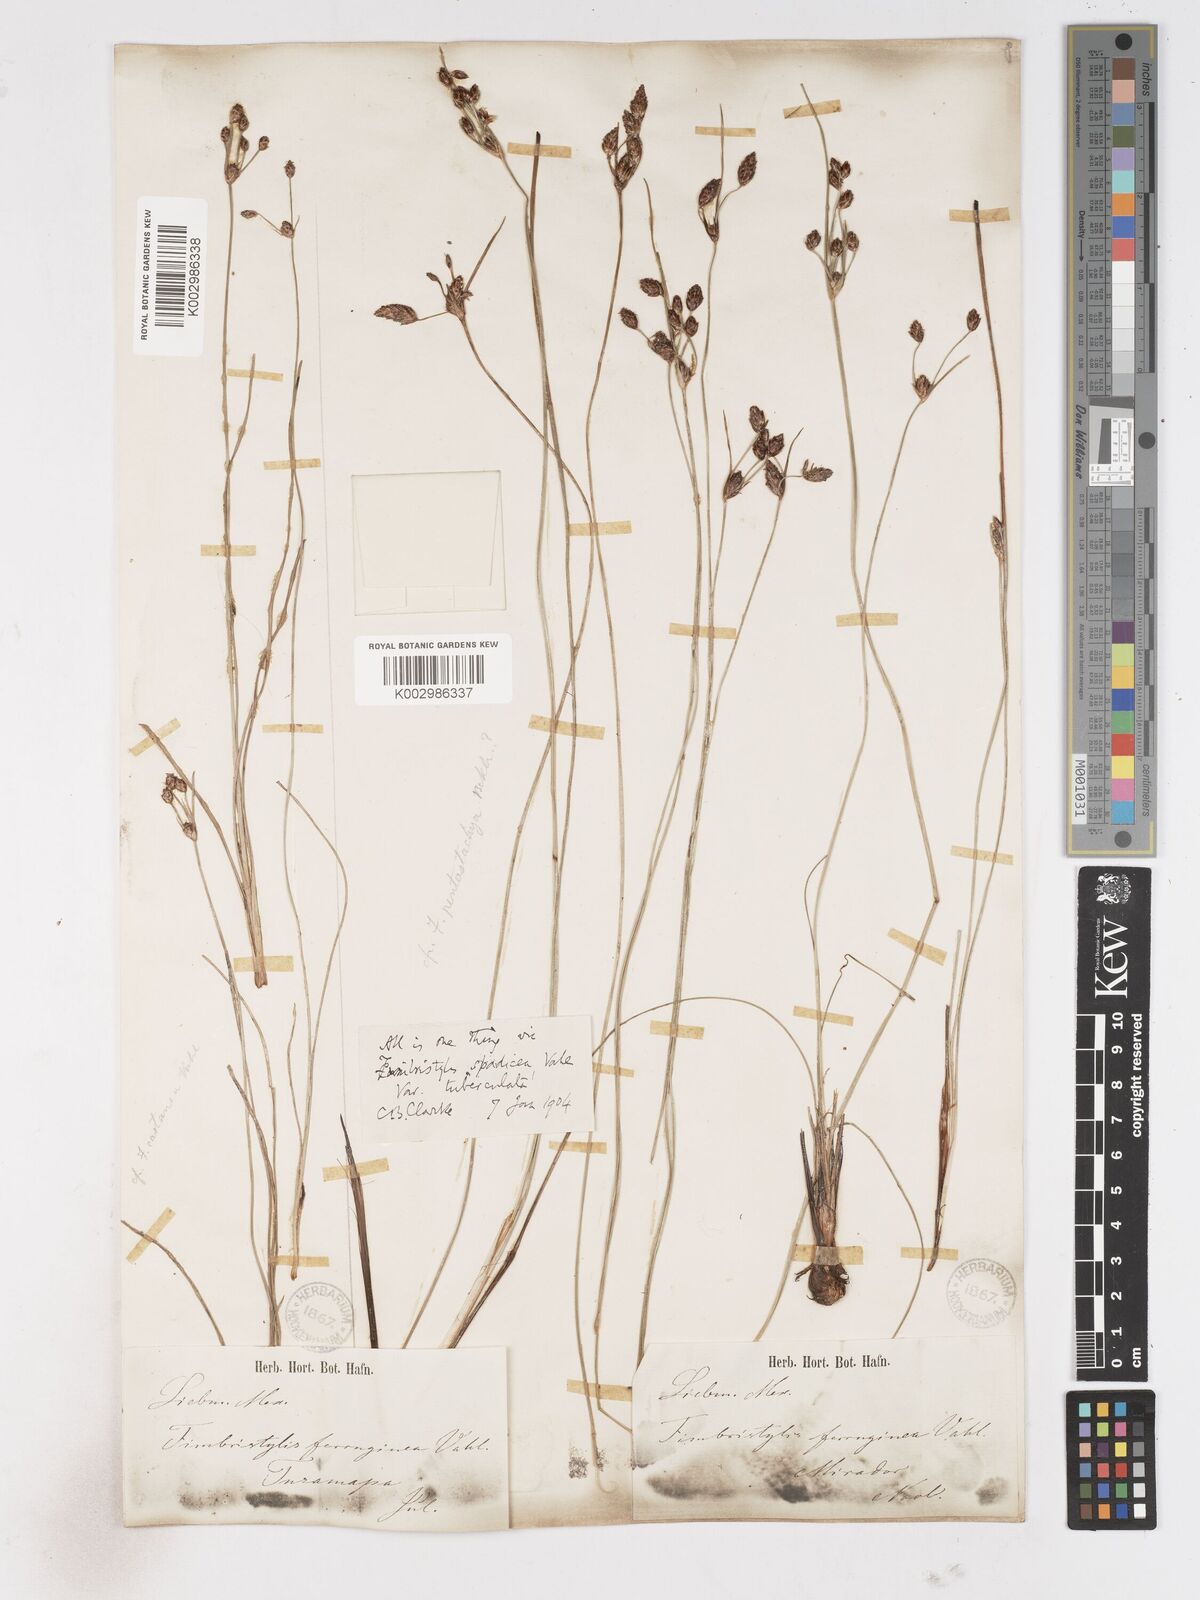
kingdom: Plantae
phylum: Tracheophyta
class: Liliopsida
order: Poales
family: Cyperaceae
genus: Fimbristylis
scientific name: Fimbristylis spadicea
